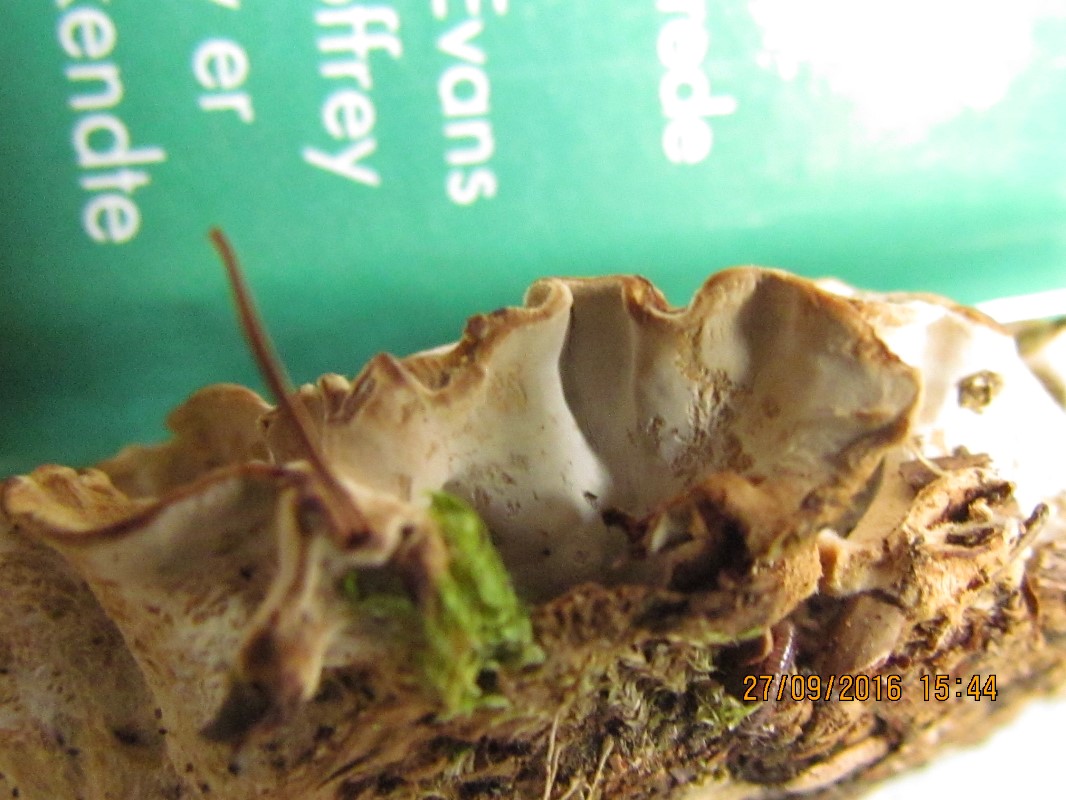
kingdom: Fungi
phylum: Basidiomycota
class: Agaricomycetes
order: Russulales
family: Hericiaceae
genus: Laxitextum
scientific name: Laxitextum bicolor
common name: tvefarvet filtskind
